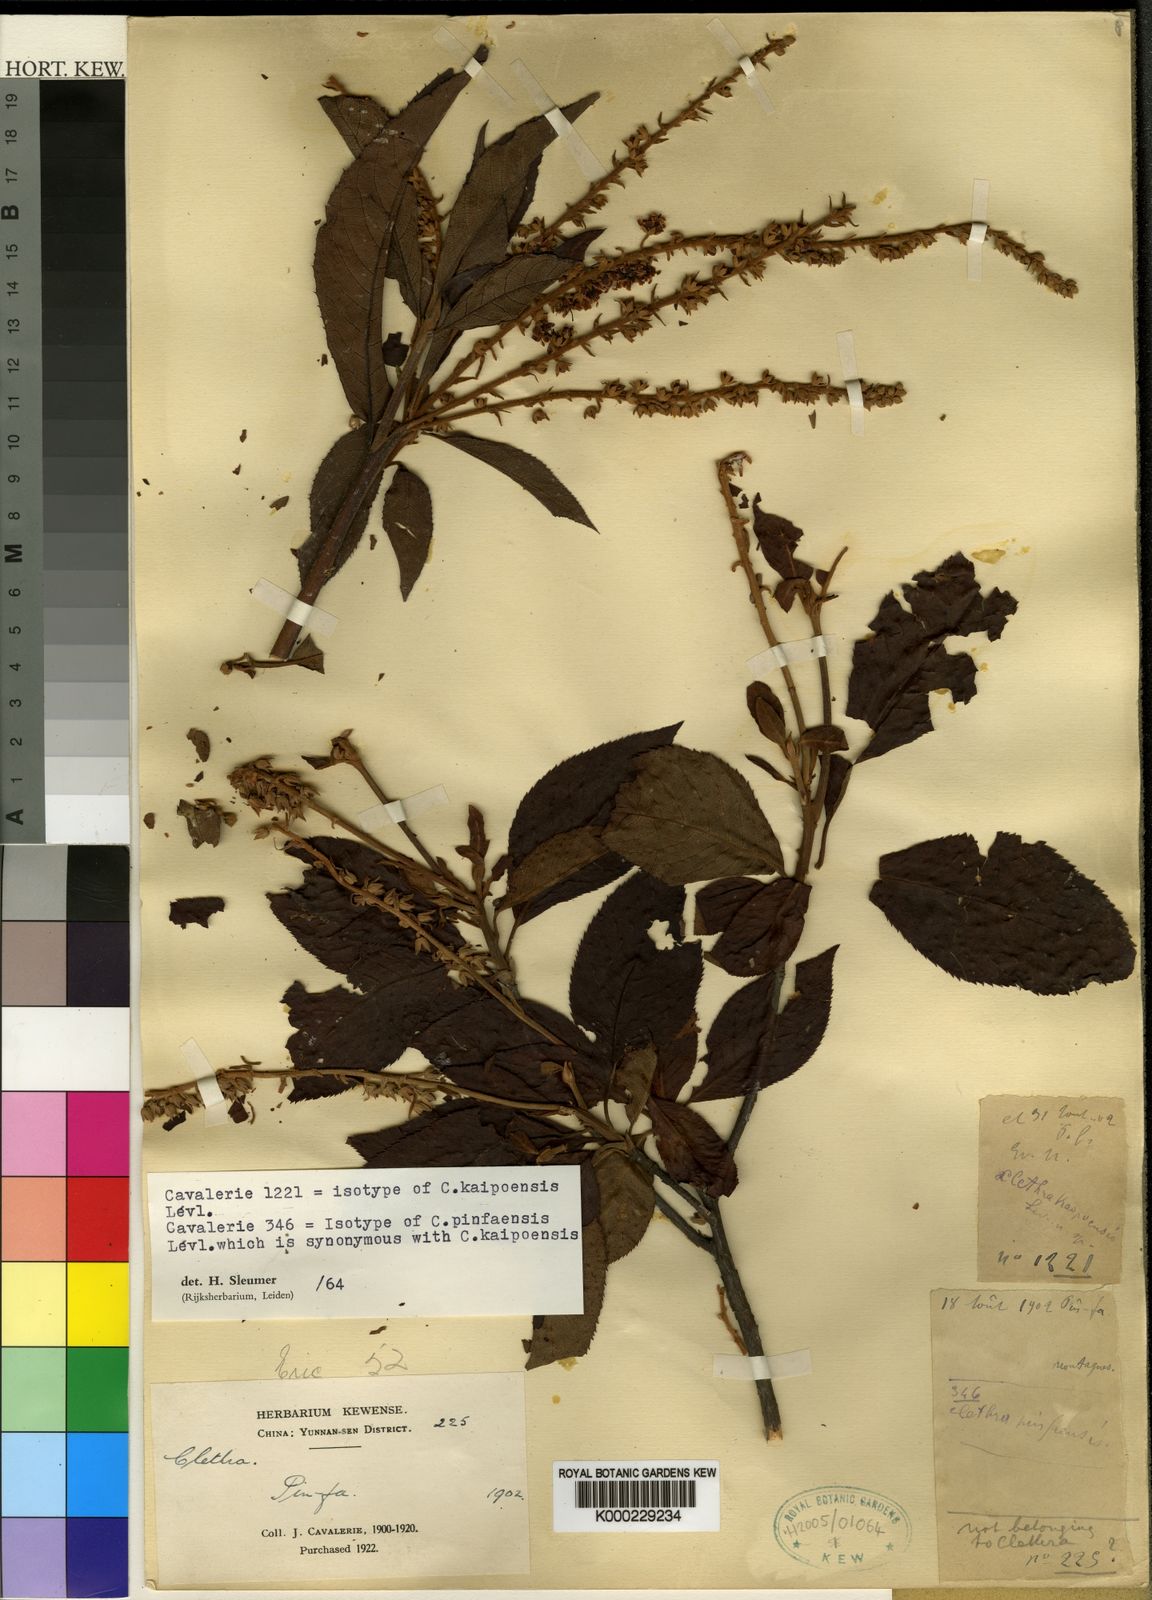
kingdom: Plantae
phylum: Tracheophyta
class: Magnoliopsida
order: Ericales
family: Clethraceae
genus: Clethra
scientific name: Clethra
